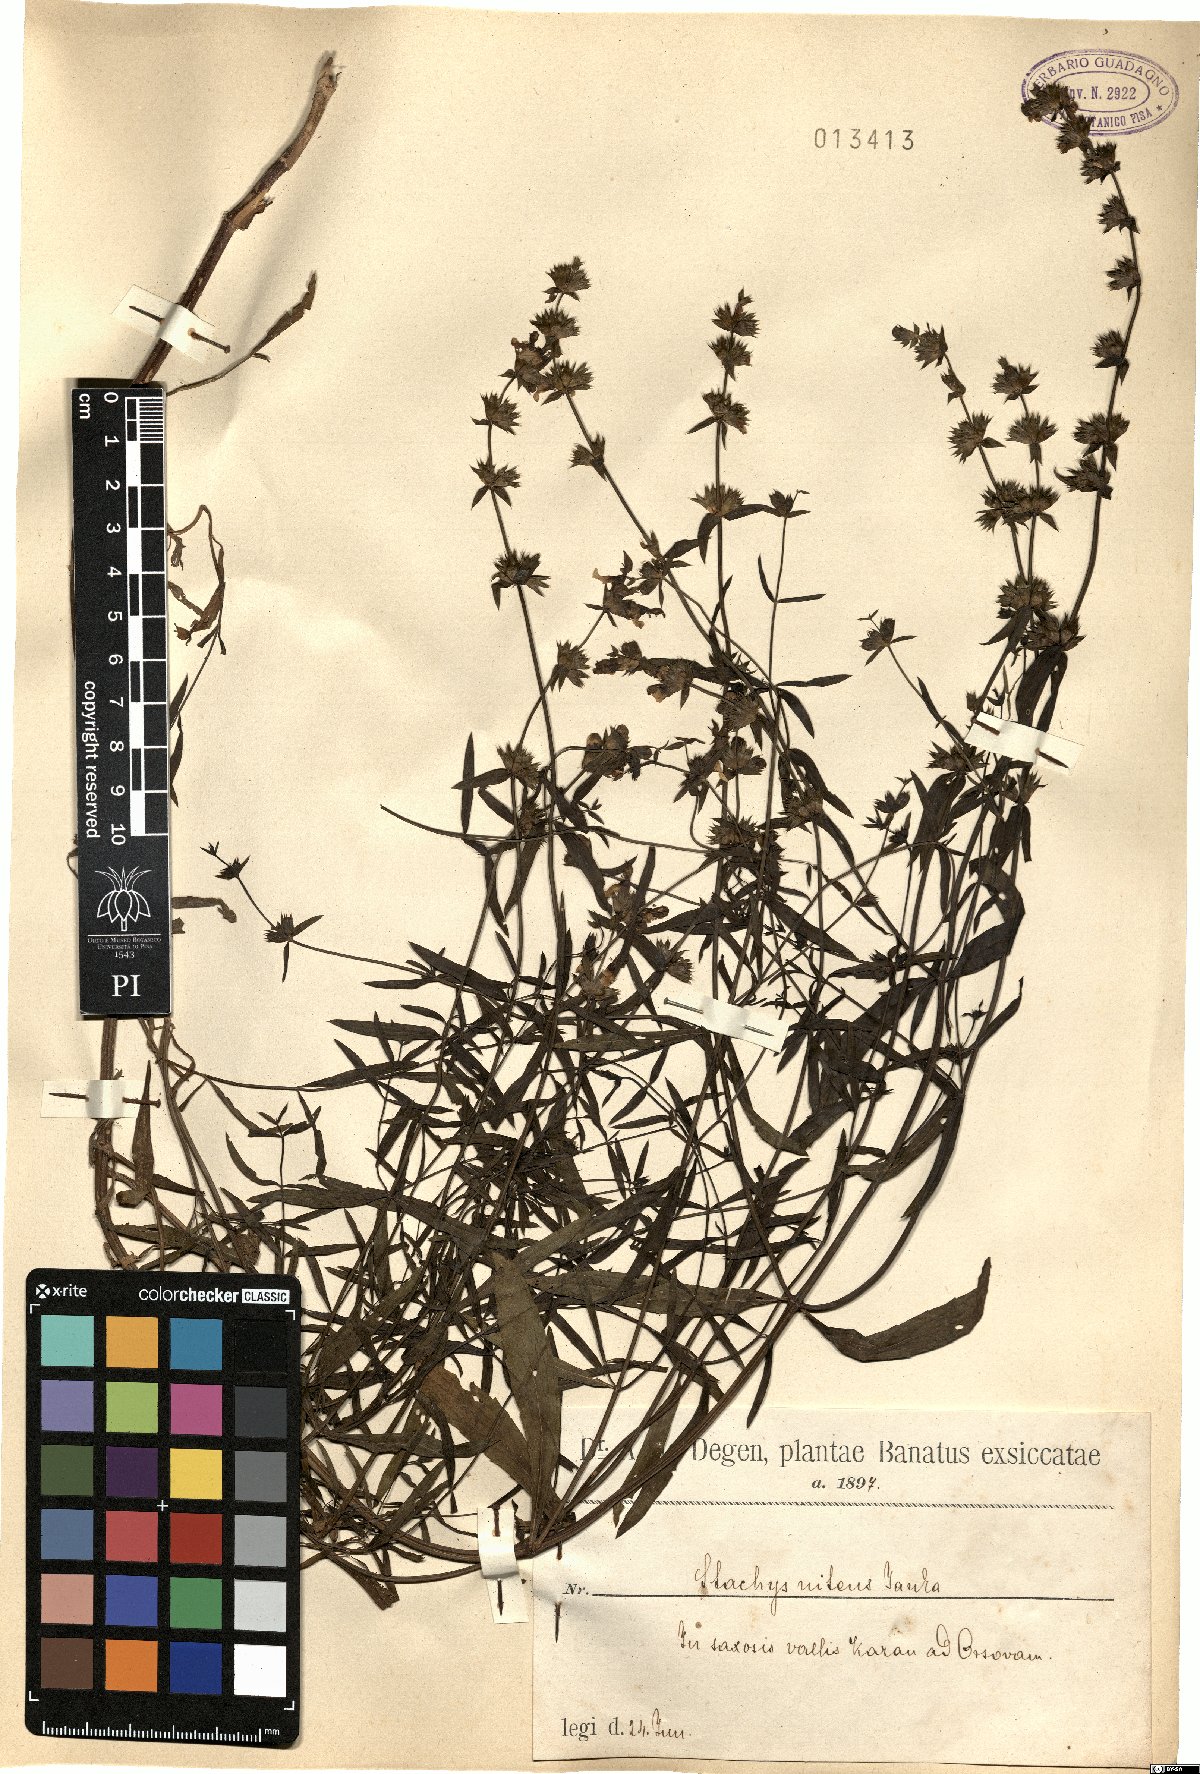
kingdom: Plantae
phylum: Tracheophyta
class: Magnoliopsida
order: Lamiales
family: Lamiaceae
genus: Stachys
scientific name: Stachys recta
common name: Perennial yellow-woundwort
